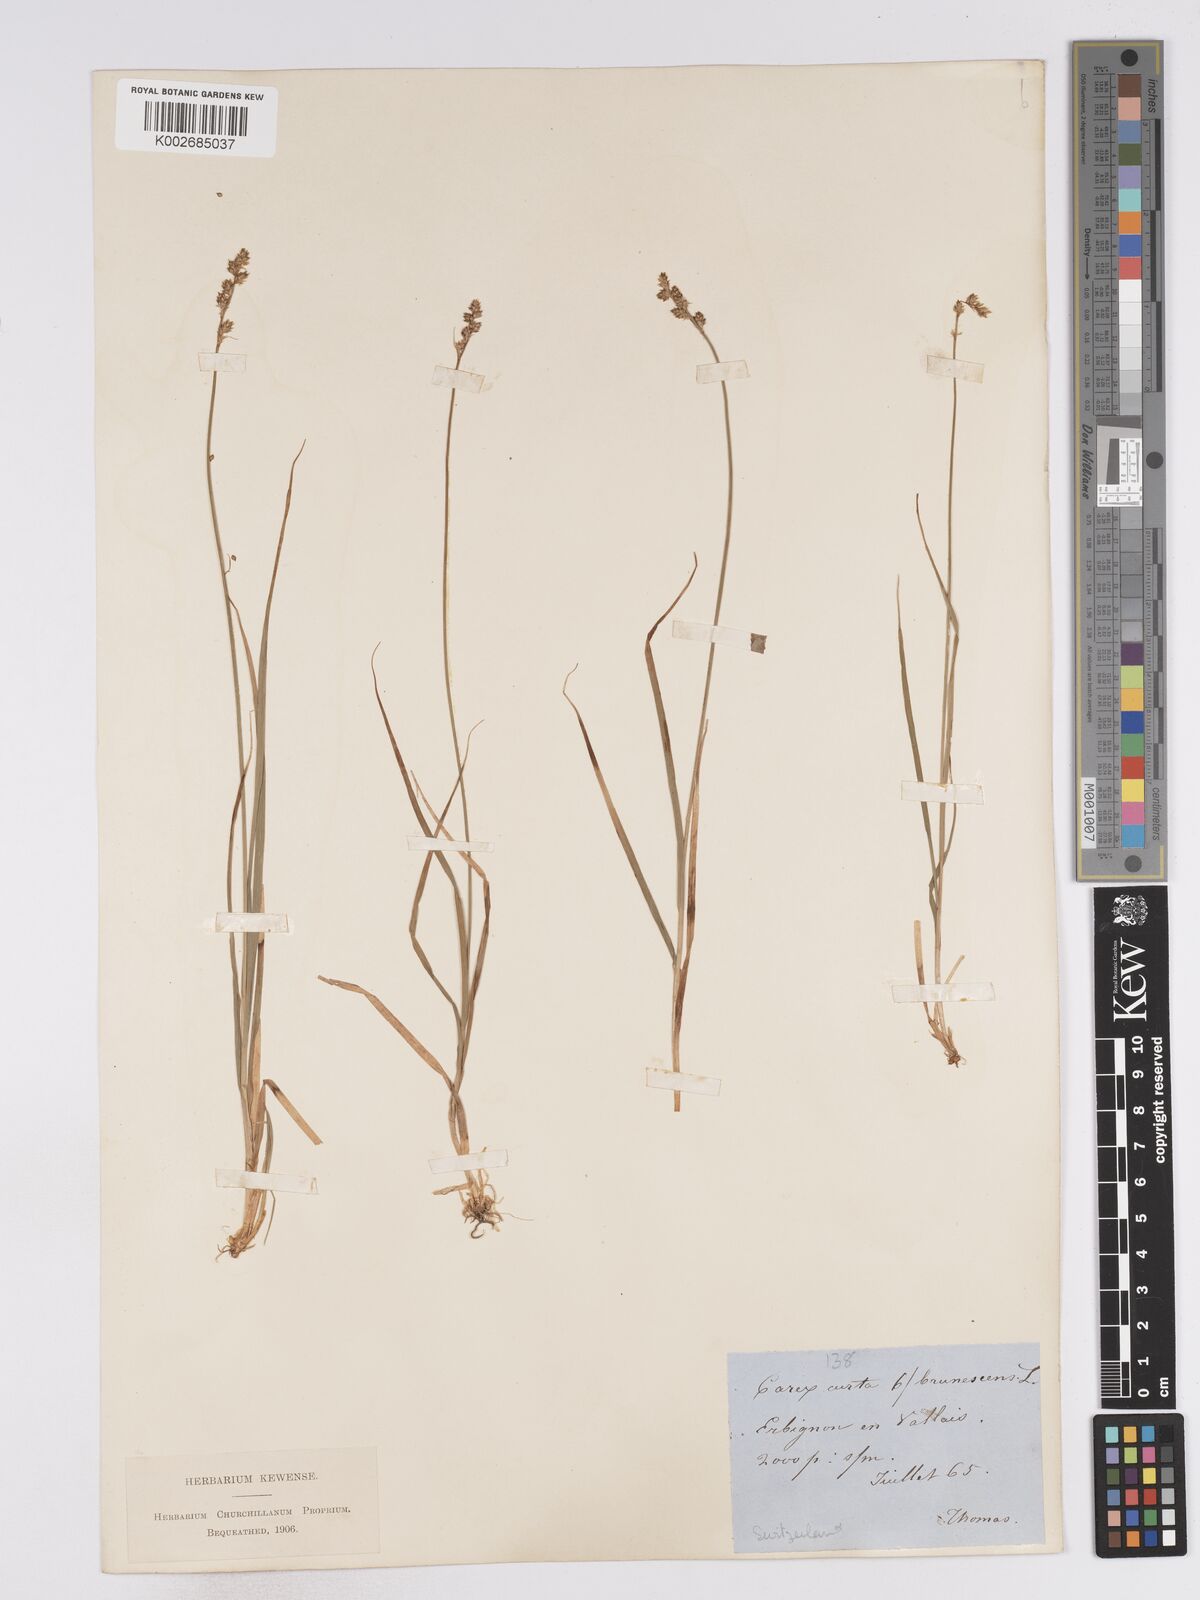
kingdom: Plantae
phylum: Tracheophyta
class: Liliopsida
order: Poales
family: Cyperaceae
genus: Carex
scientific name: Carex brunnescens
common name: Brown sedge
